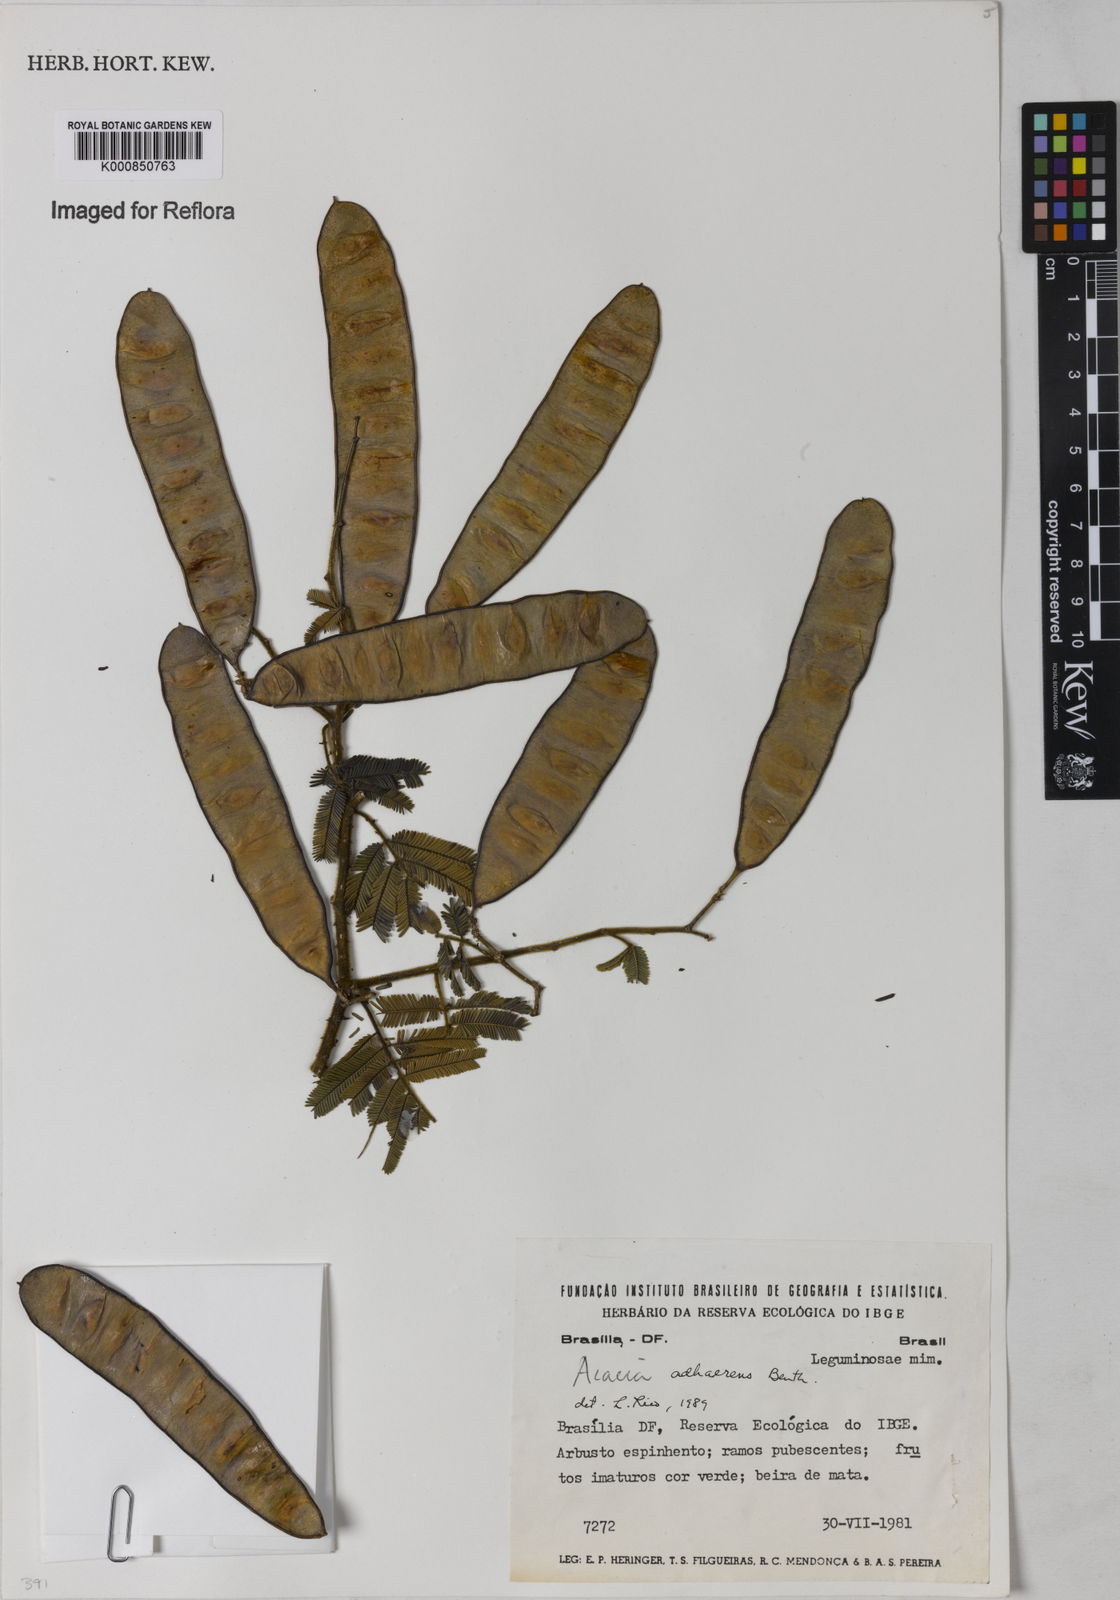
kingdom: Plantae
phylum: Tracheophyta
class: Magnoliopsida
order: Fabales
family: Fabaceae
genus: Senegalia
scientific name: Senegalia martiusiana
